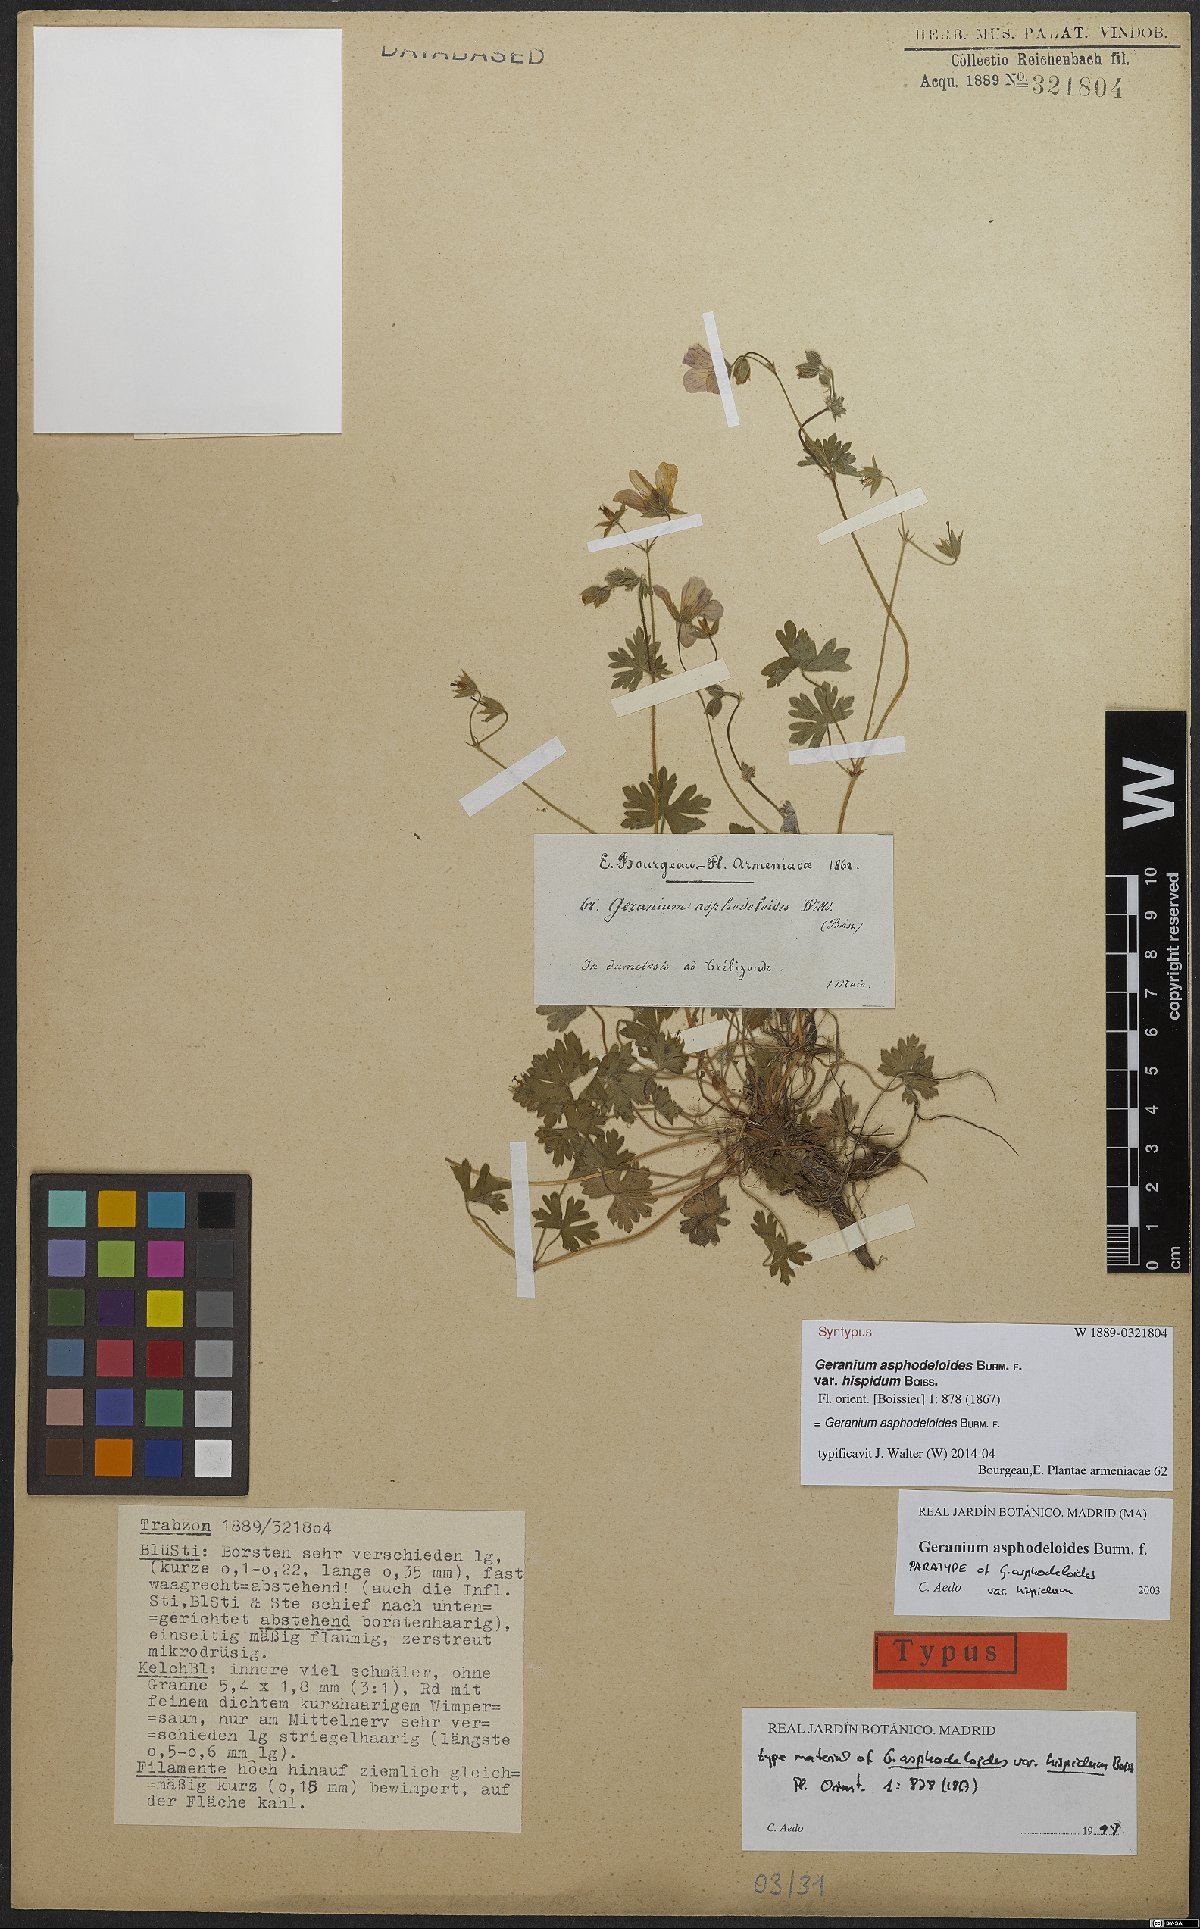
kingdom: Plantae
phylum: Tracheophyta
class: Magnoliopsida
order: Geraniales
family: Geraniaceae
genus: Geranium
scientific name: Geranium asphodeloides
